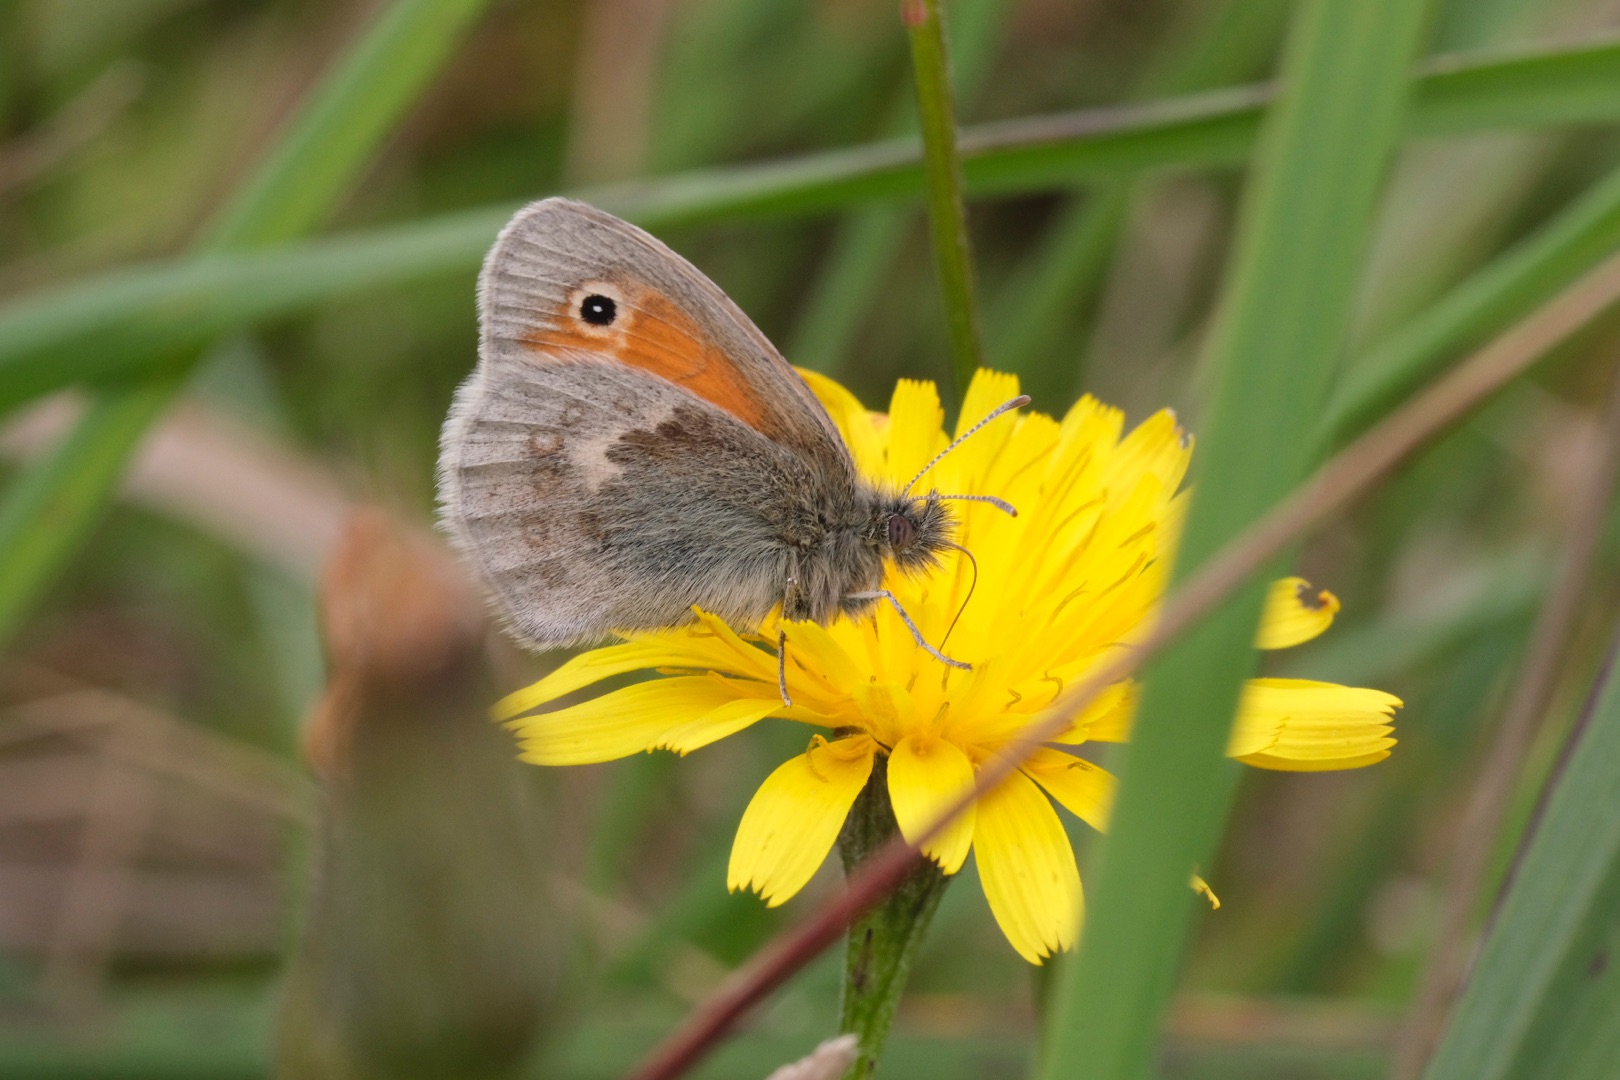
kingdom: Animalia
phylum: Arthropoda
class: Insecta
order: Lepidoptera
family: Nymphalidae
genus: Coenonympha
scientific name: Coenonympha pamphilus
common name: Okkergul randøje
